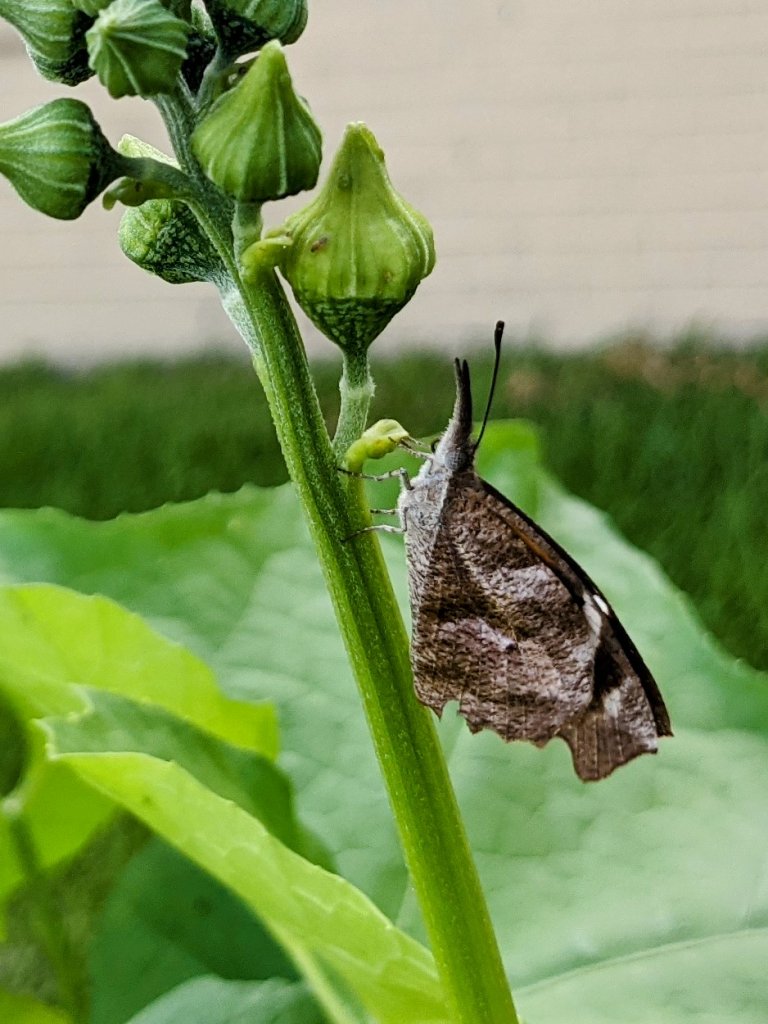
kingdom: Animalia
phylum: Arthropoda
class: Insecta
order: Lepidoptera
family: Nymphalidae
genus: Libytheana
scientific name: Libytheana carinenta
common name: American Snout
